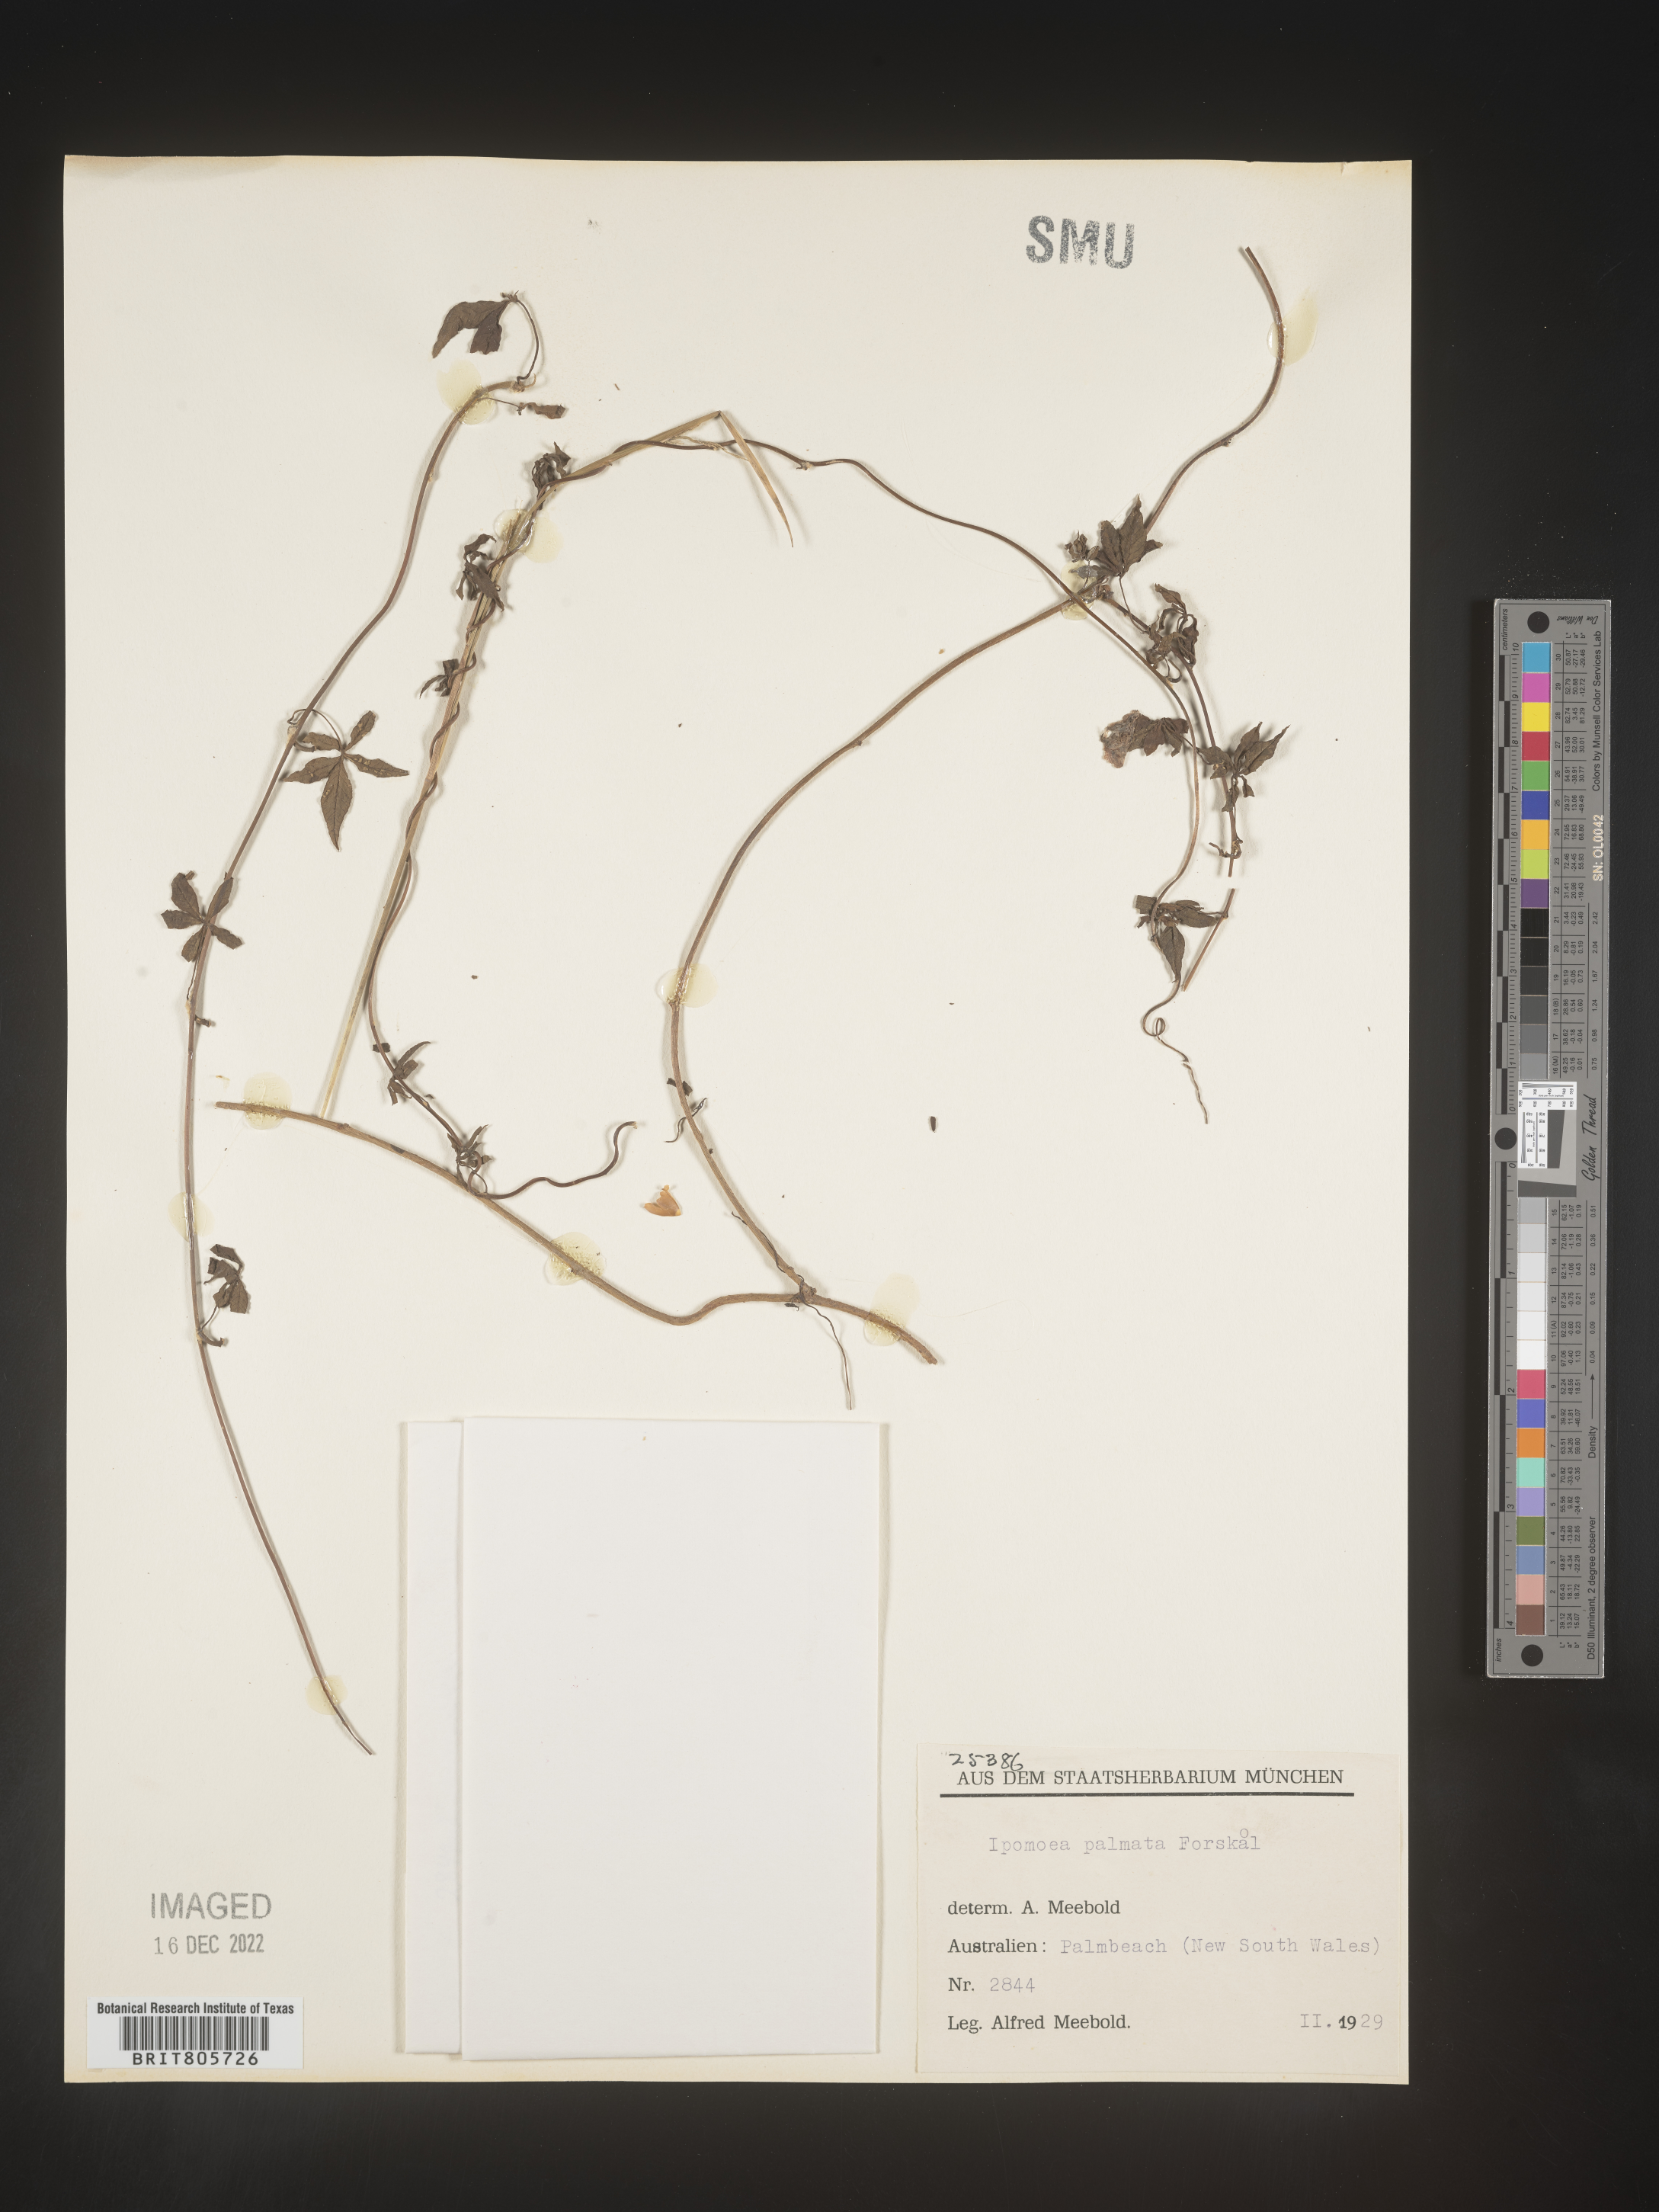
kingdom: Plantae
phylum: Tracheophyta
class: Magnoliopsida
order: Solanales
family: Convolvulaceae
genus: Ipomoea
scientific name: Ipomoea
